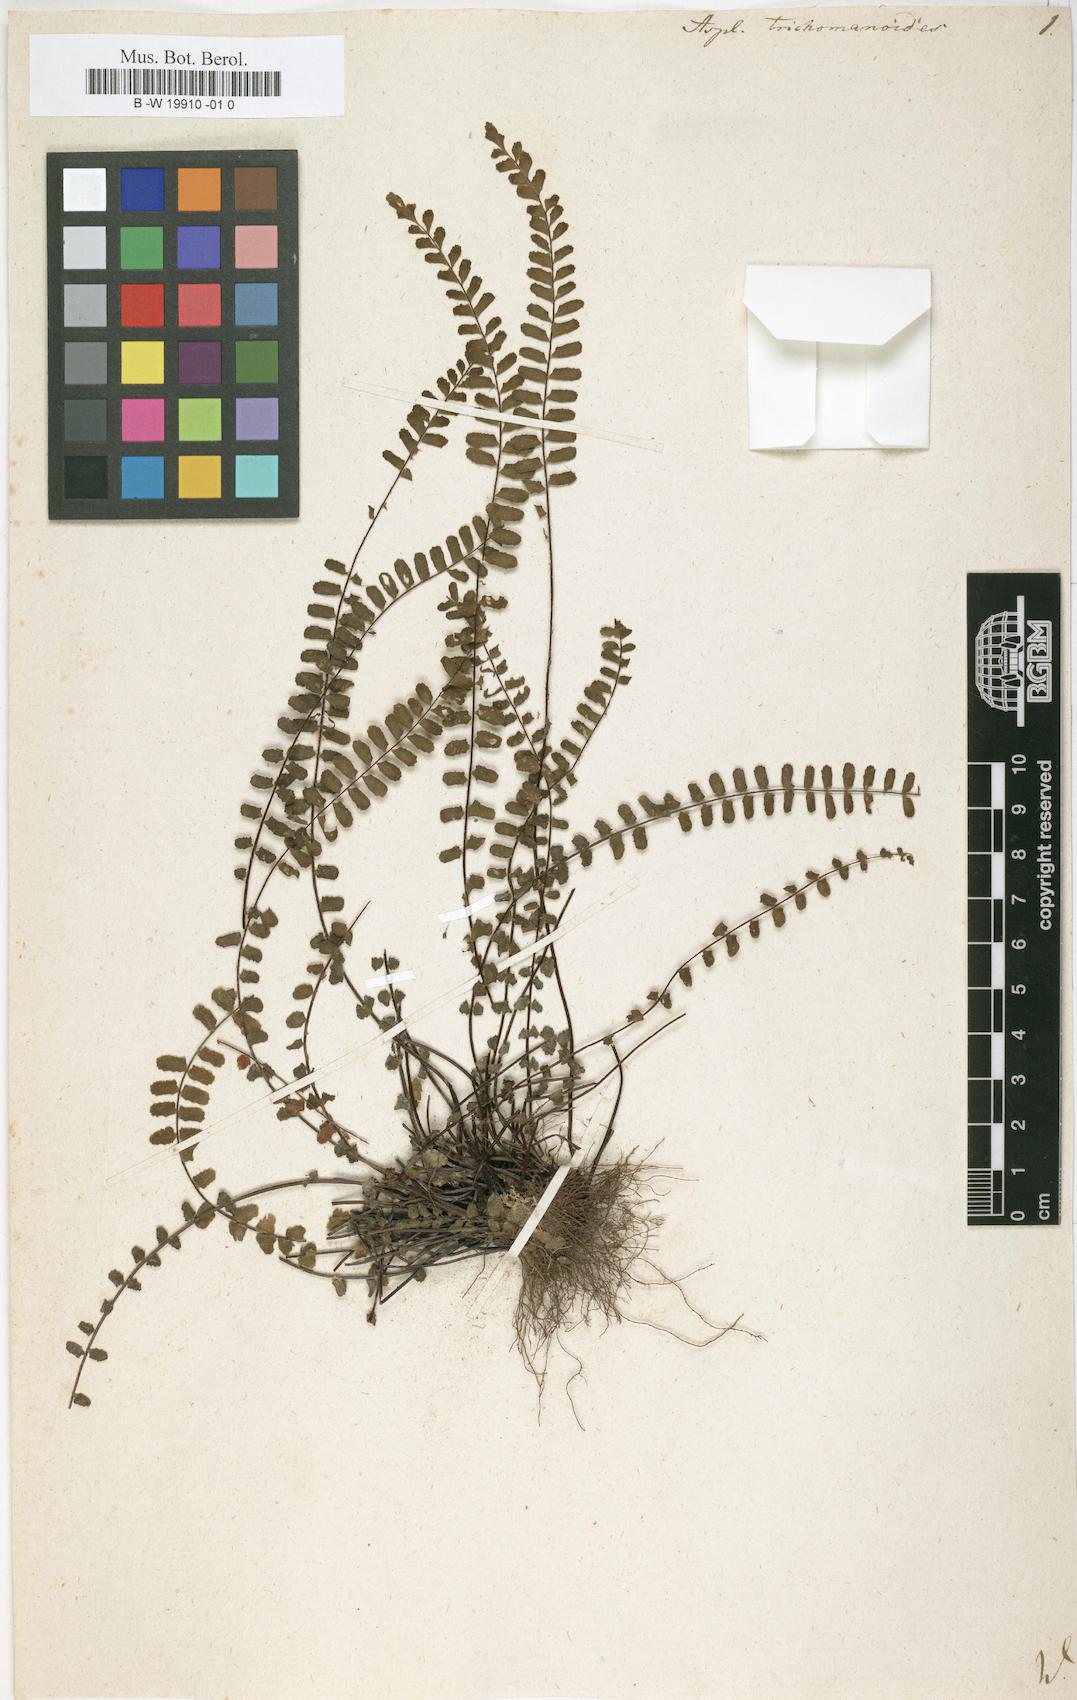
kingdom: Plantae
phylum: Tracheophyta
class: Polypodiopsida
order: Polypodiales
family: Aspleniaceae
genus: Asplenium
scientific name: Asplenium trichomanoides
